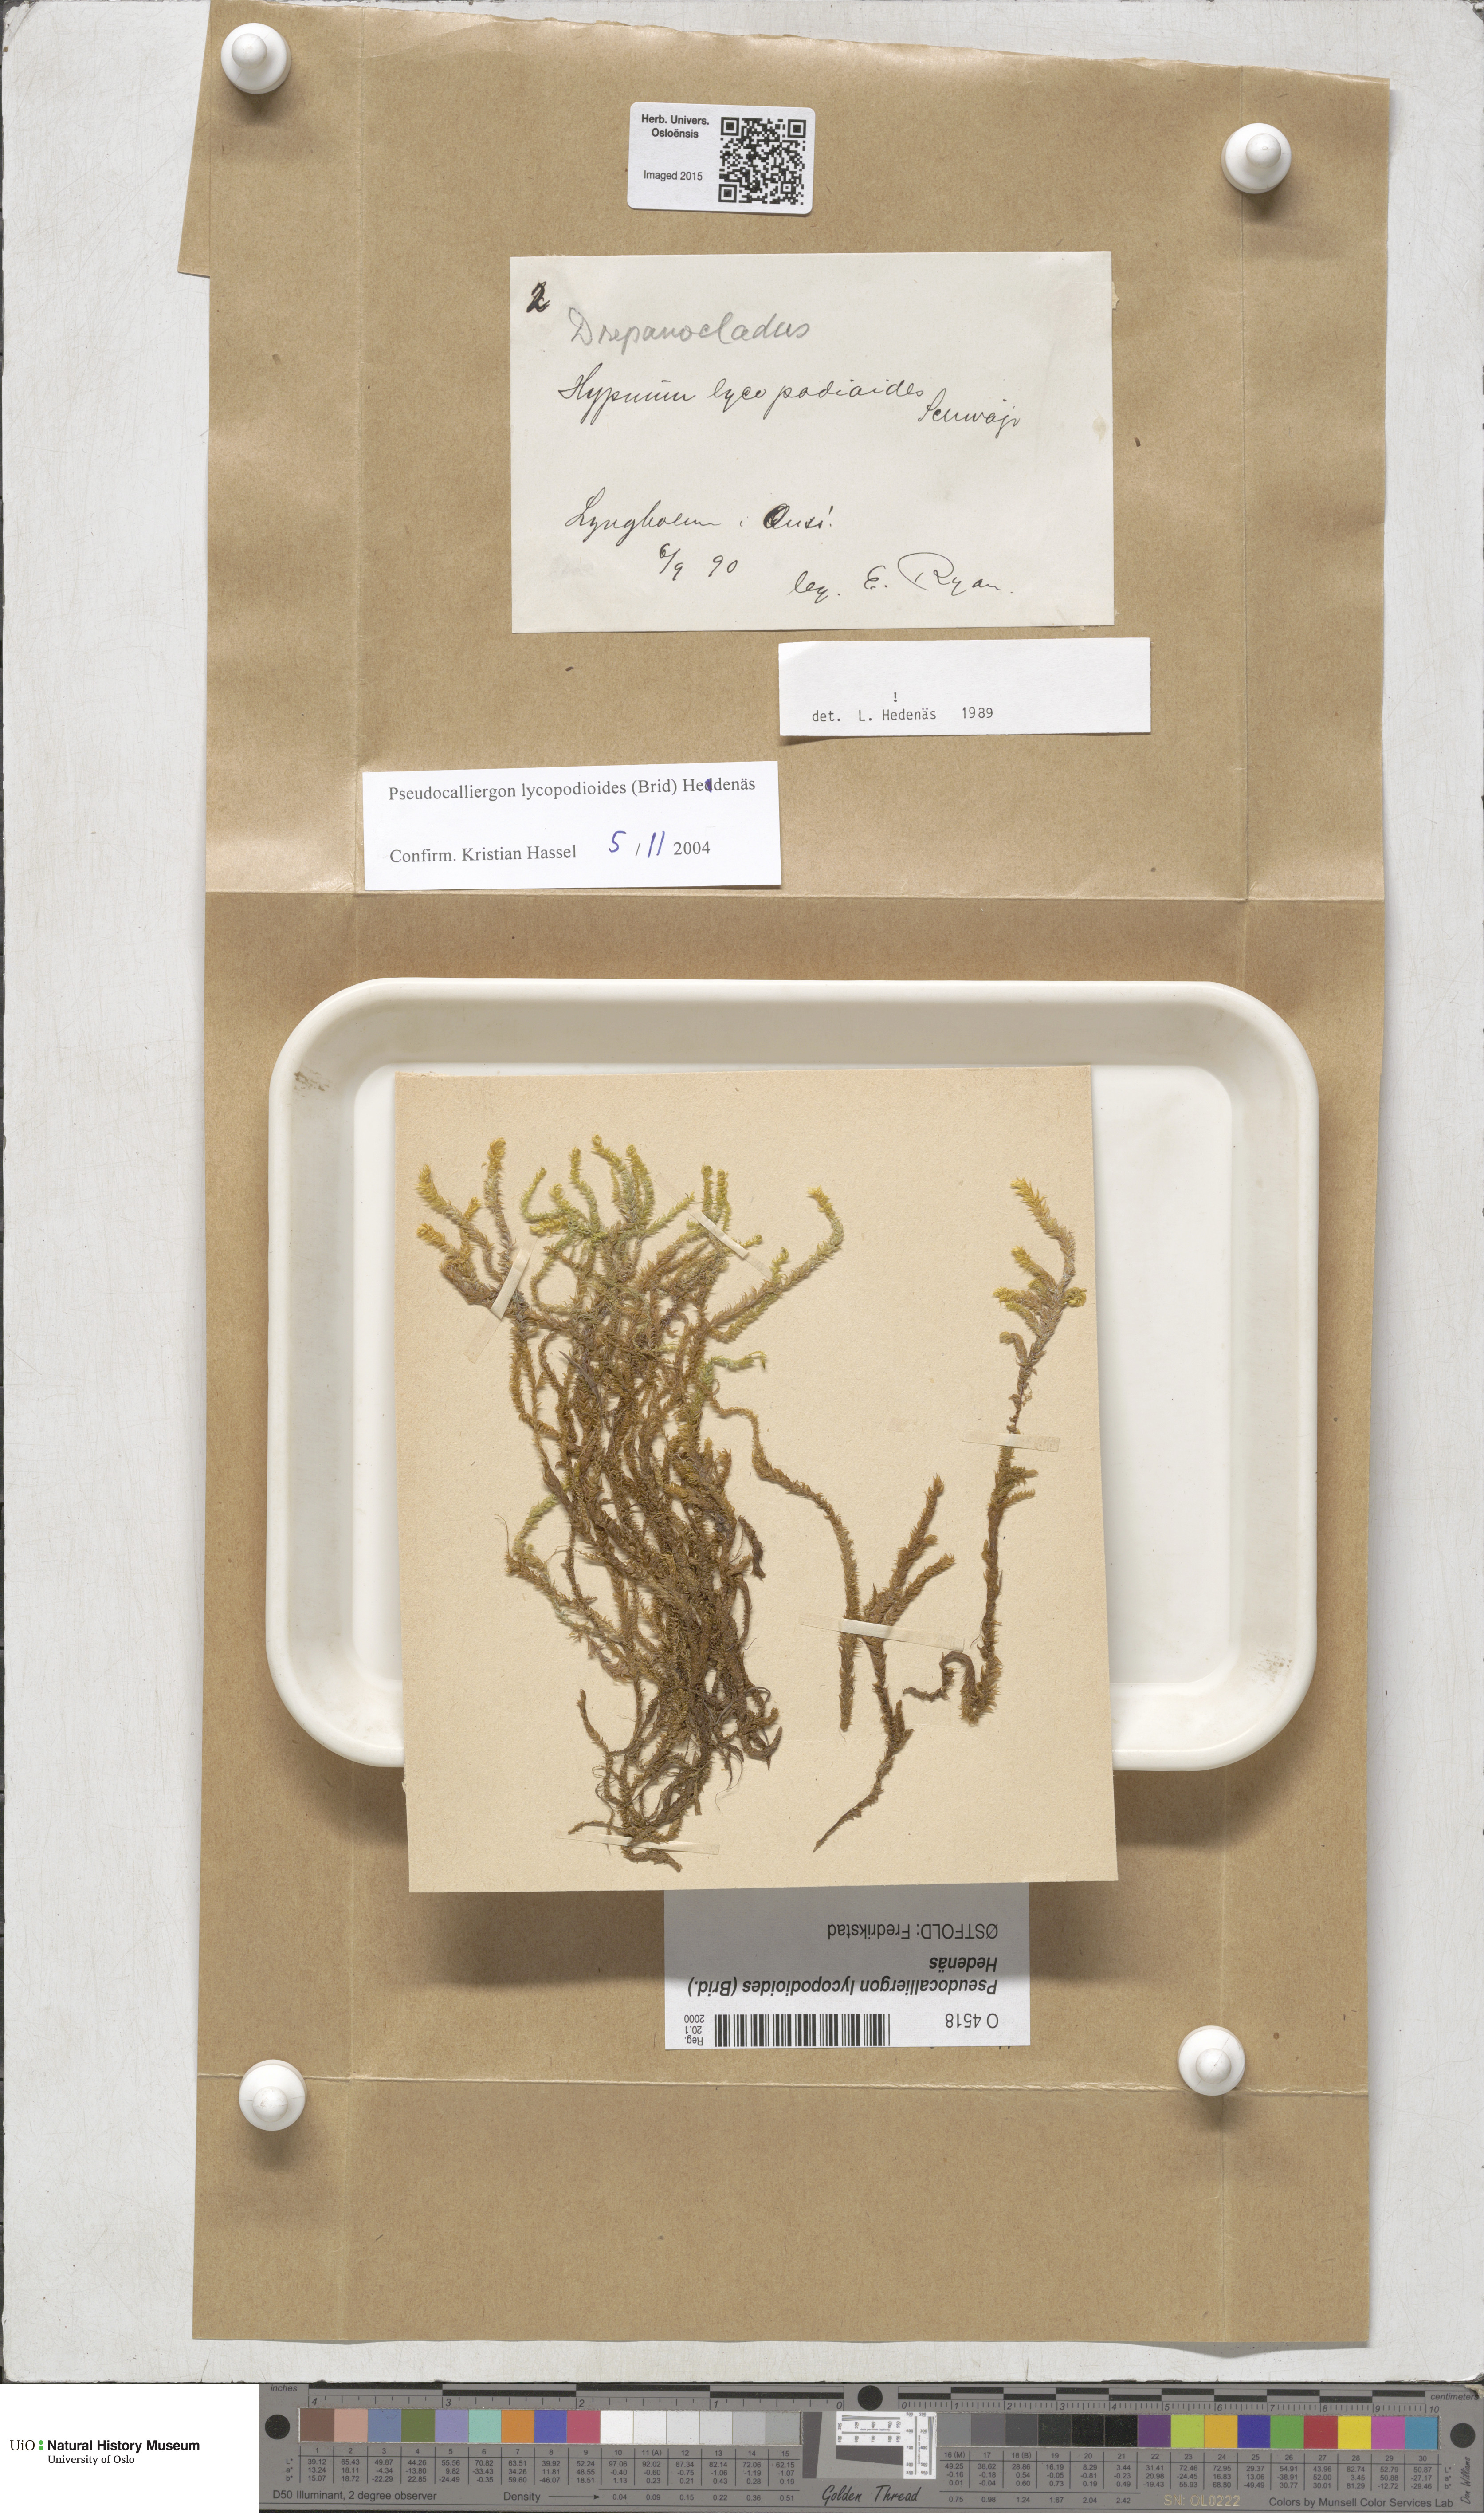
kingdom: Plantae
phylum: Bryophyta
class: Bryopsida
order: Hypnales
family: Amblystegiaceae
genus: Drepanocladus
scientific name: Drepanocladus lycopodioides
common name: Large hook-moss
